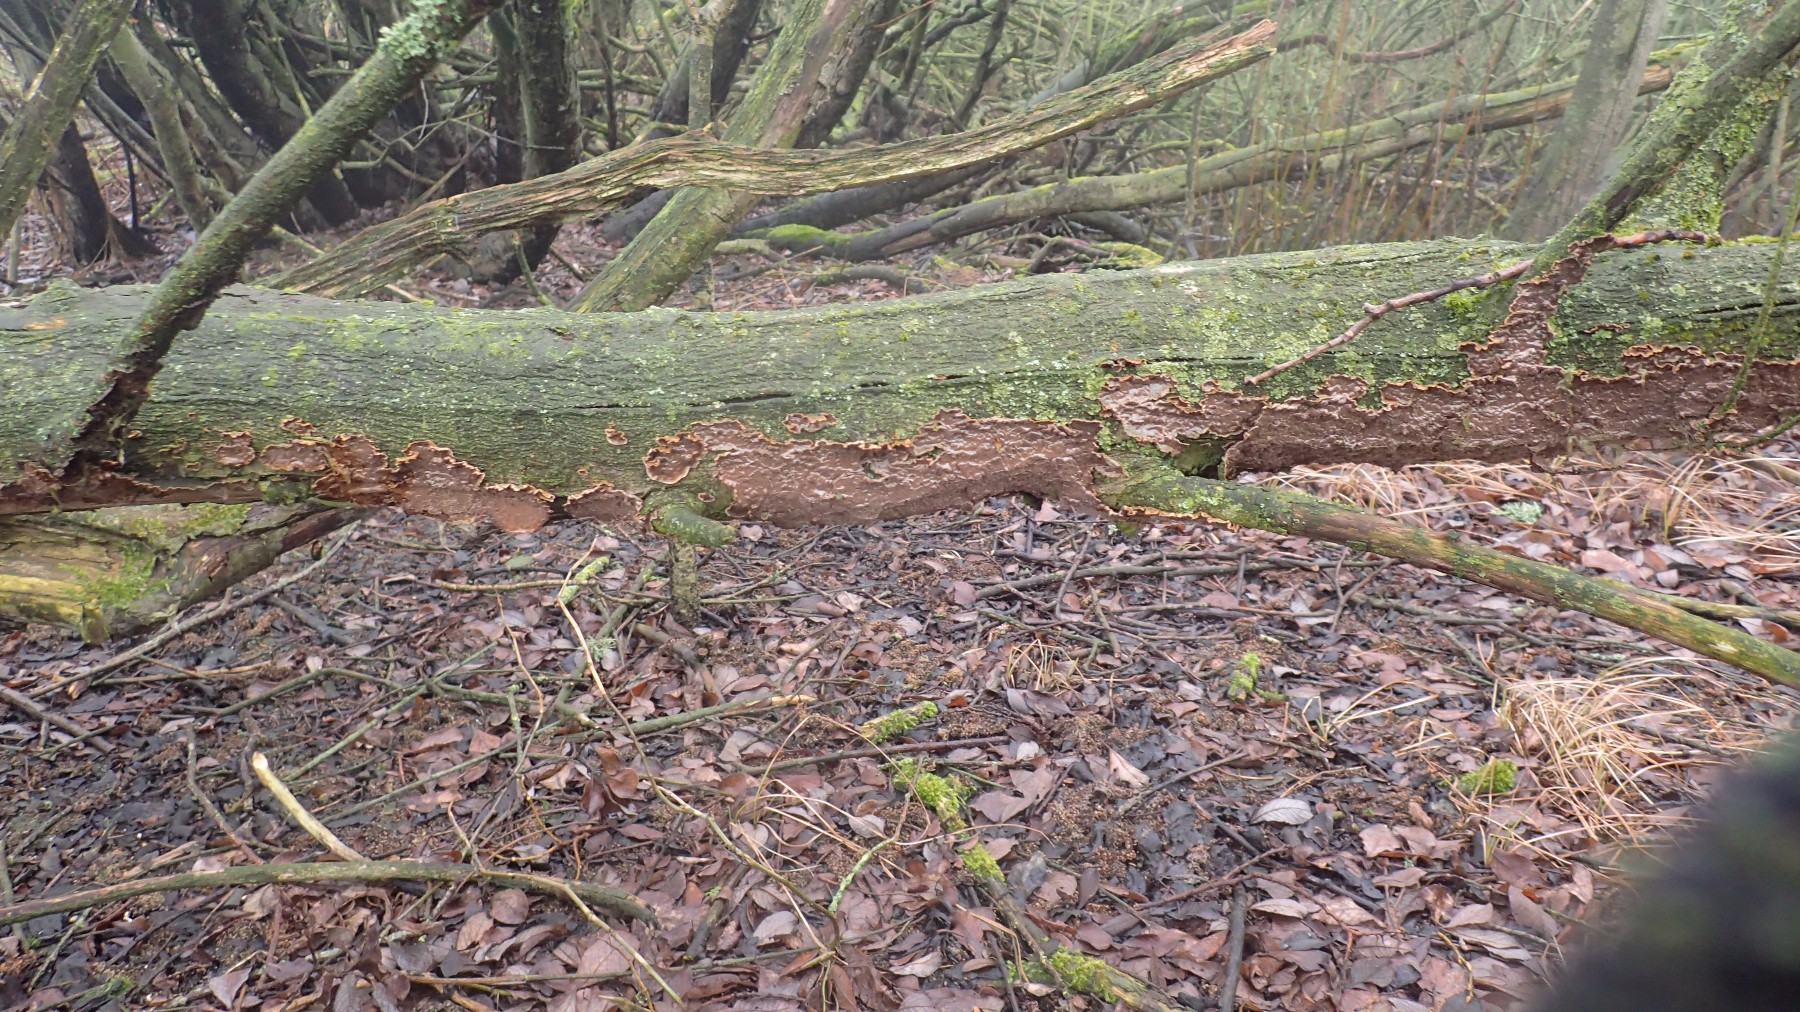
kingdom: Fungi
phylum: Basidiomycota
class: Agaricomycetes
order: Hymenochaetales
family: Hymenochaetaceae
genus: Hydnoporia
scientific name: Hydnoporia tabacina
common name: tobaksbrun ruslædersvamp
